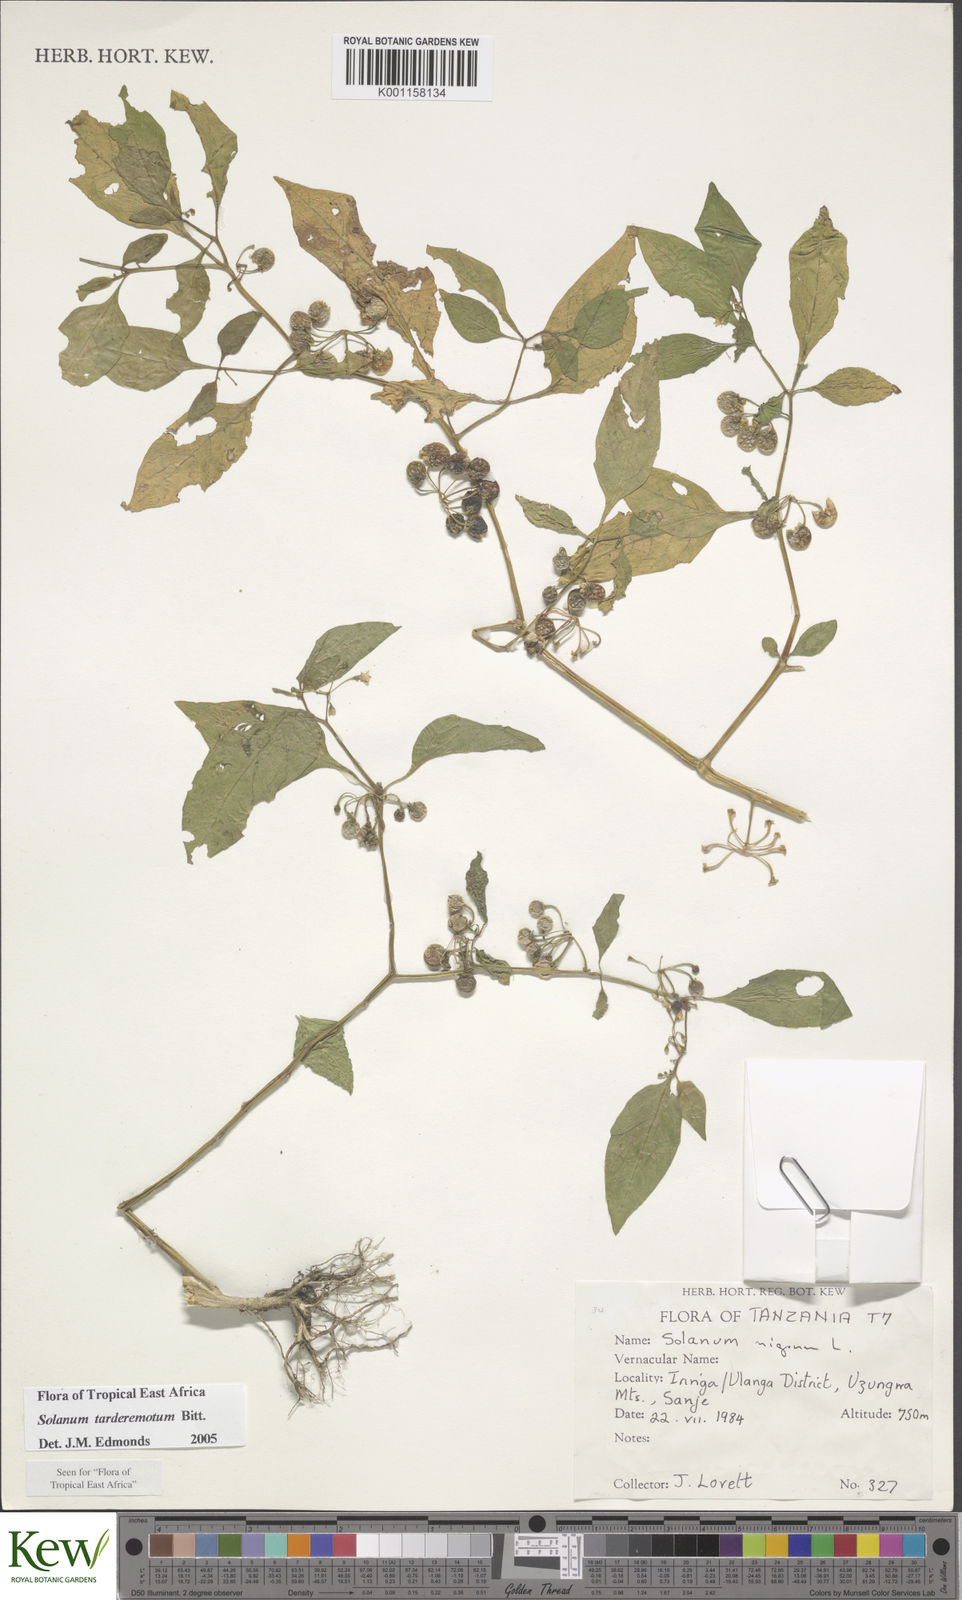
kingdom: Plantae
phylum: Tracheophyta
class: Magnoliopsida
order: Solanales
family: Solanaceae
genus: Solanum
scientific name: Solanum tarderemotum
